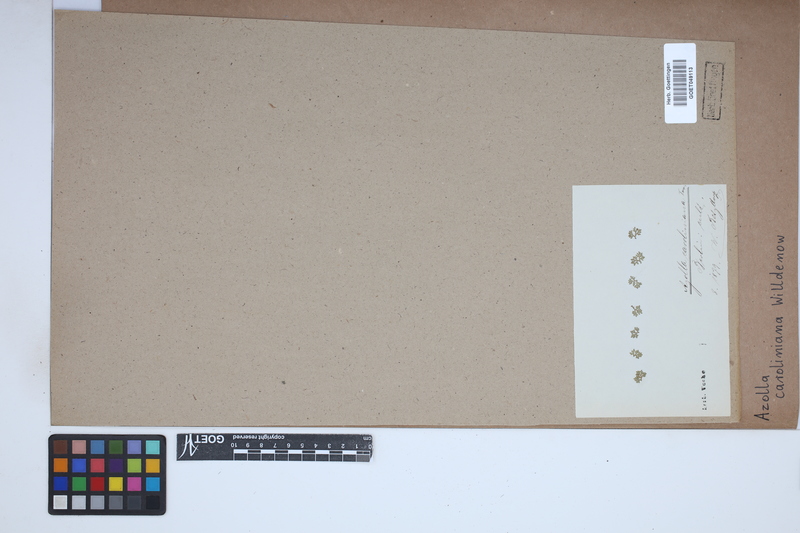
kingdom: Plantae
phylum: Tracheophyta
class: Polypodiopsida
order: Salviniales
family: Salviniaceae
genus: Azolla
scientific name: Azolla caroliniana
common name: Carolina mosquitofern
